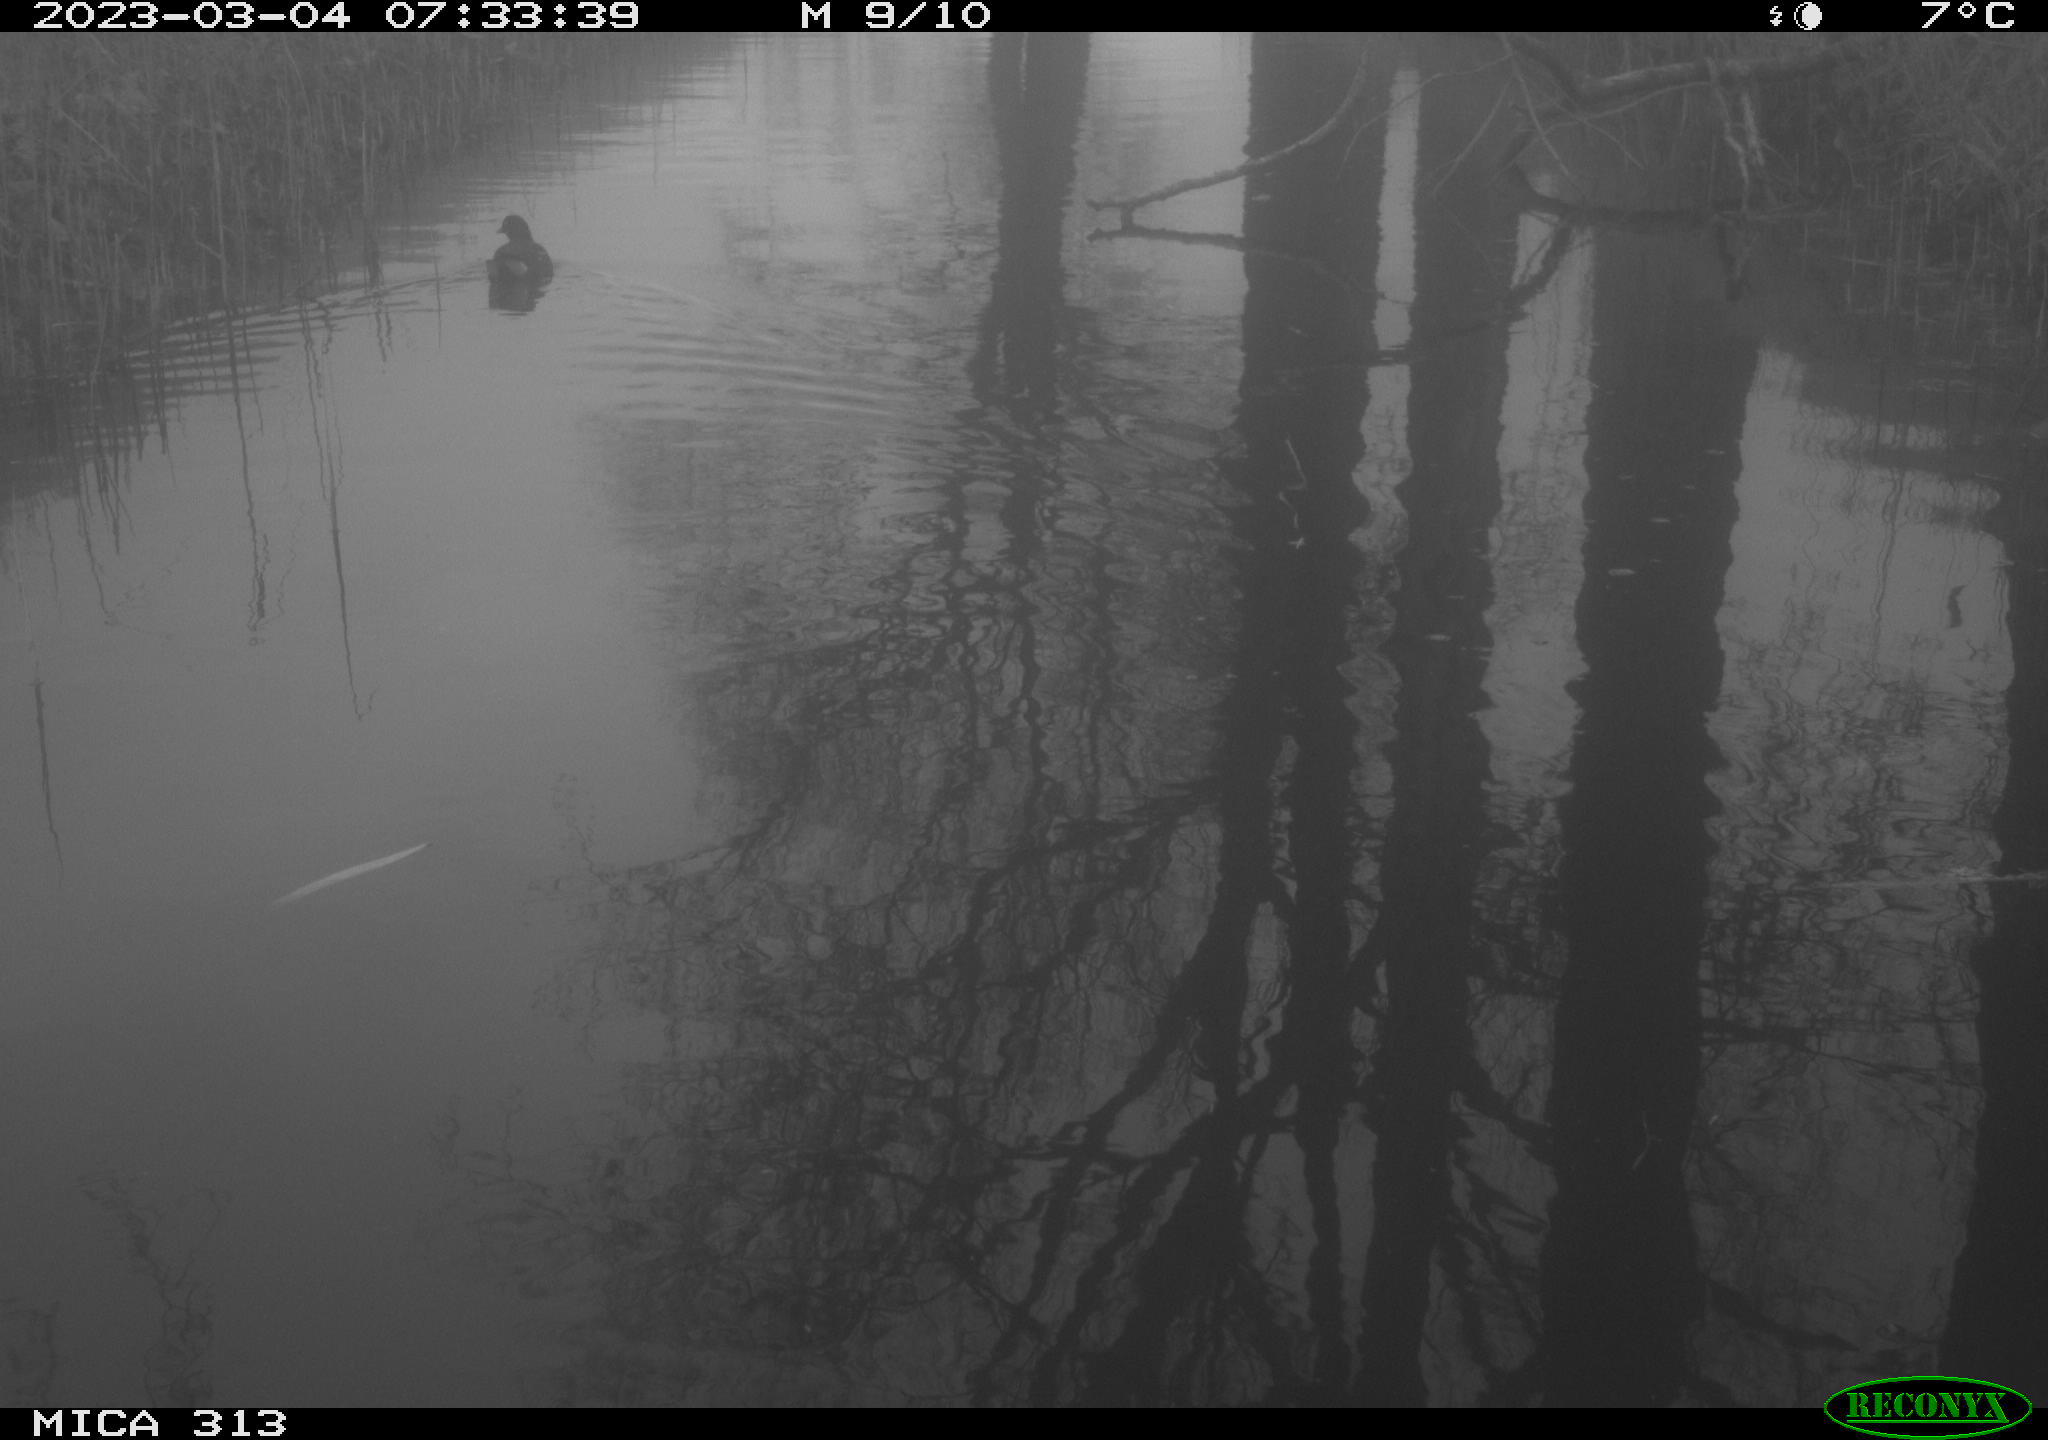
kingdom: Animalia
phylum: Chordata
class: Aves
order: Gruiformes
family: Rallidae
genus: Gallinula
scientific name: Gallinula chloropus
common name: Common moorhen
